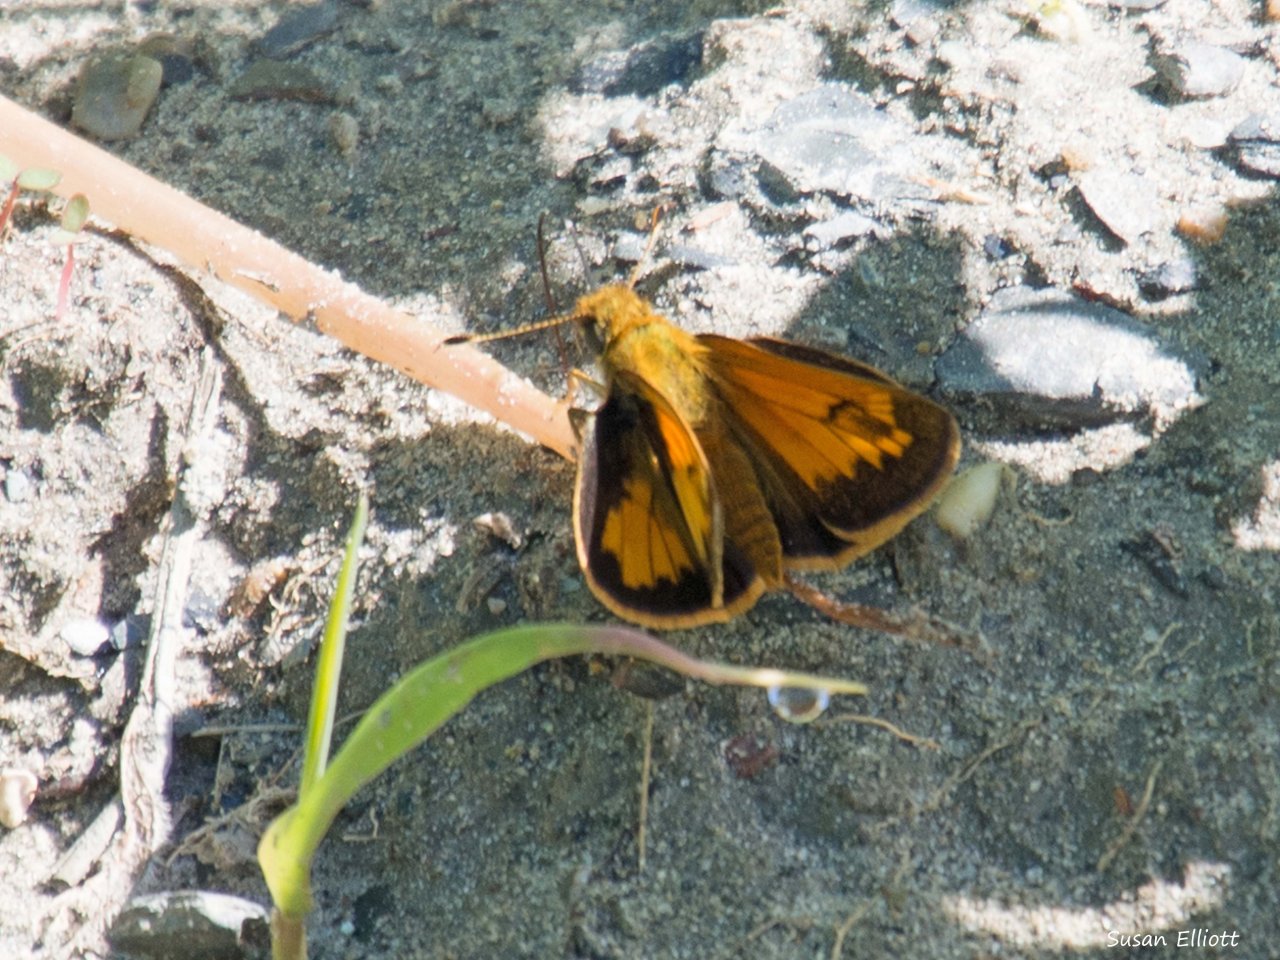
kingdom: Animalia
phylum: Arthropoda
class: Insecta
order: Lepidoptera
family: Hesperiidae
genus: Lon
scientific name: Lon hobomok
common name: Hobomok Skipper
